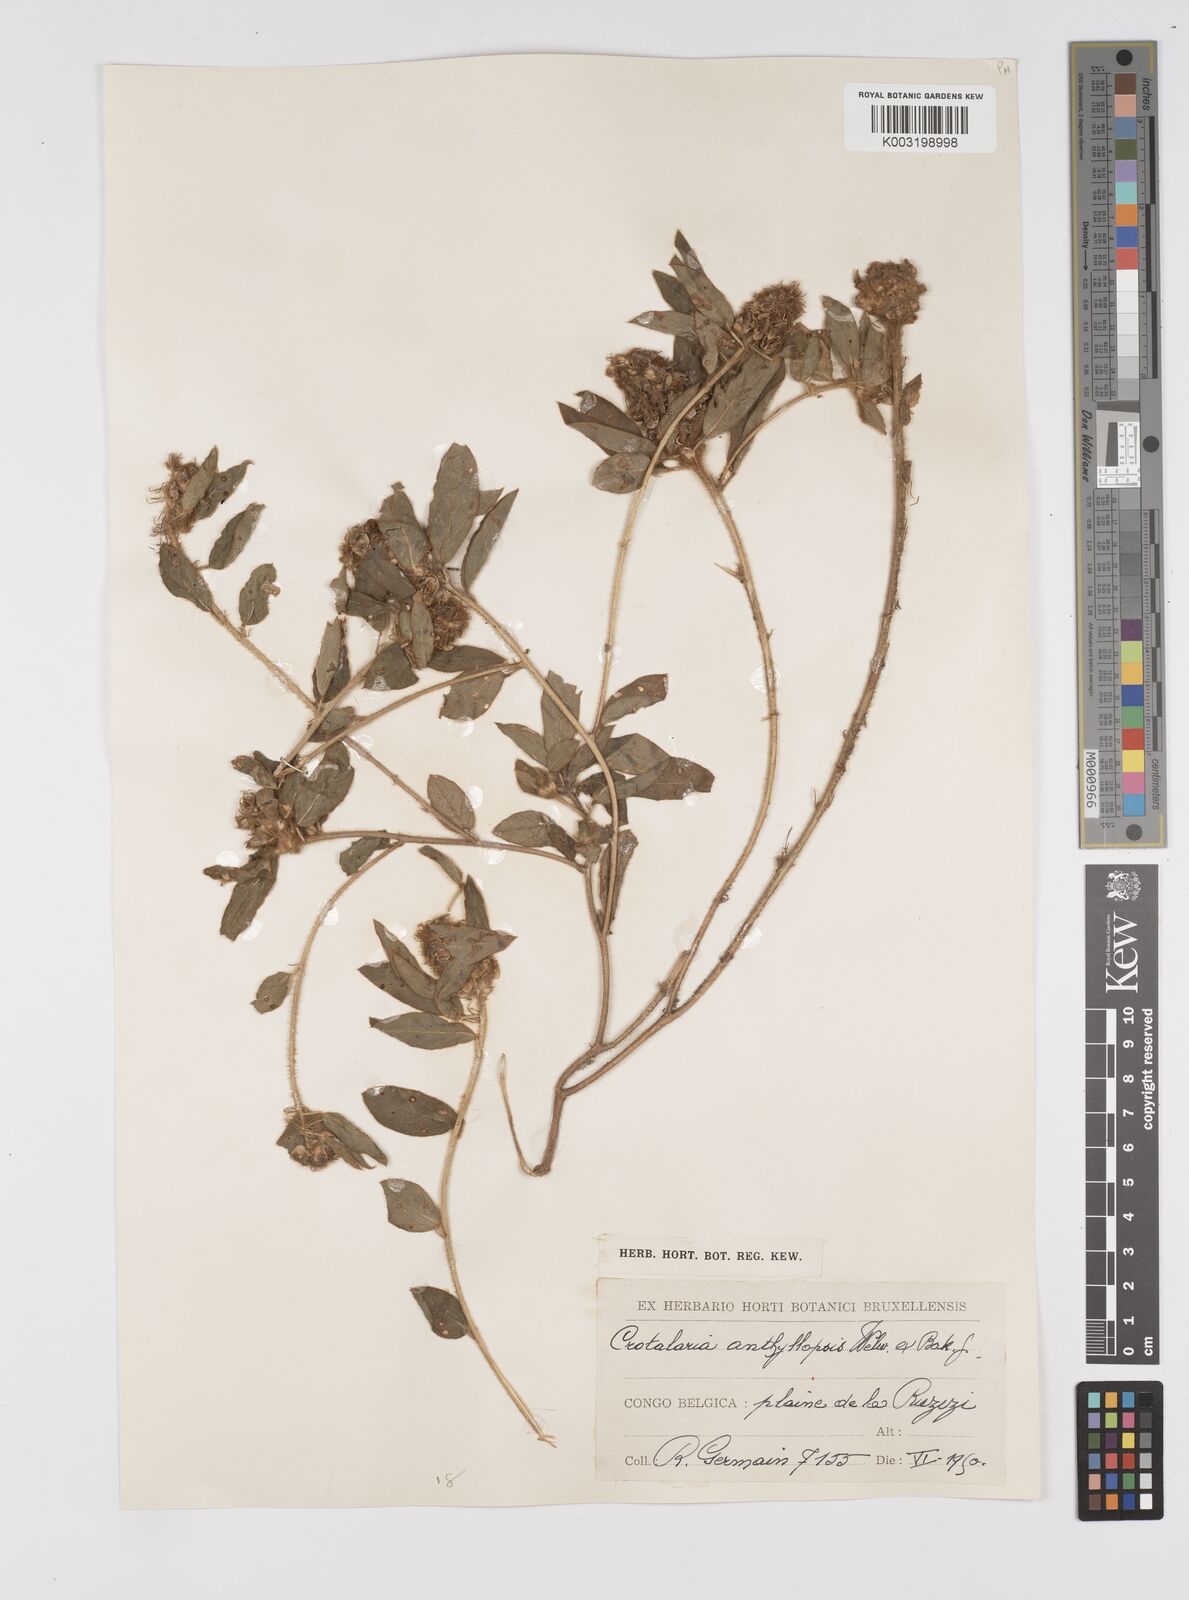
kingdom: Plantae
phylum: Tracheophyta
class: Magnoliopsida
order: Fabales
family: Fabaceae
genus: Crotalaria
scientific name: Crotalaria anthyllopsis
